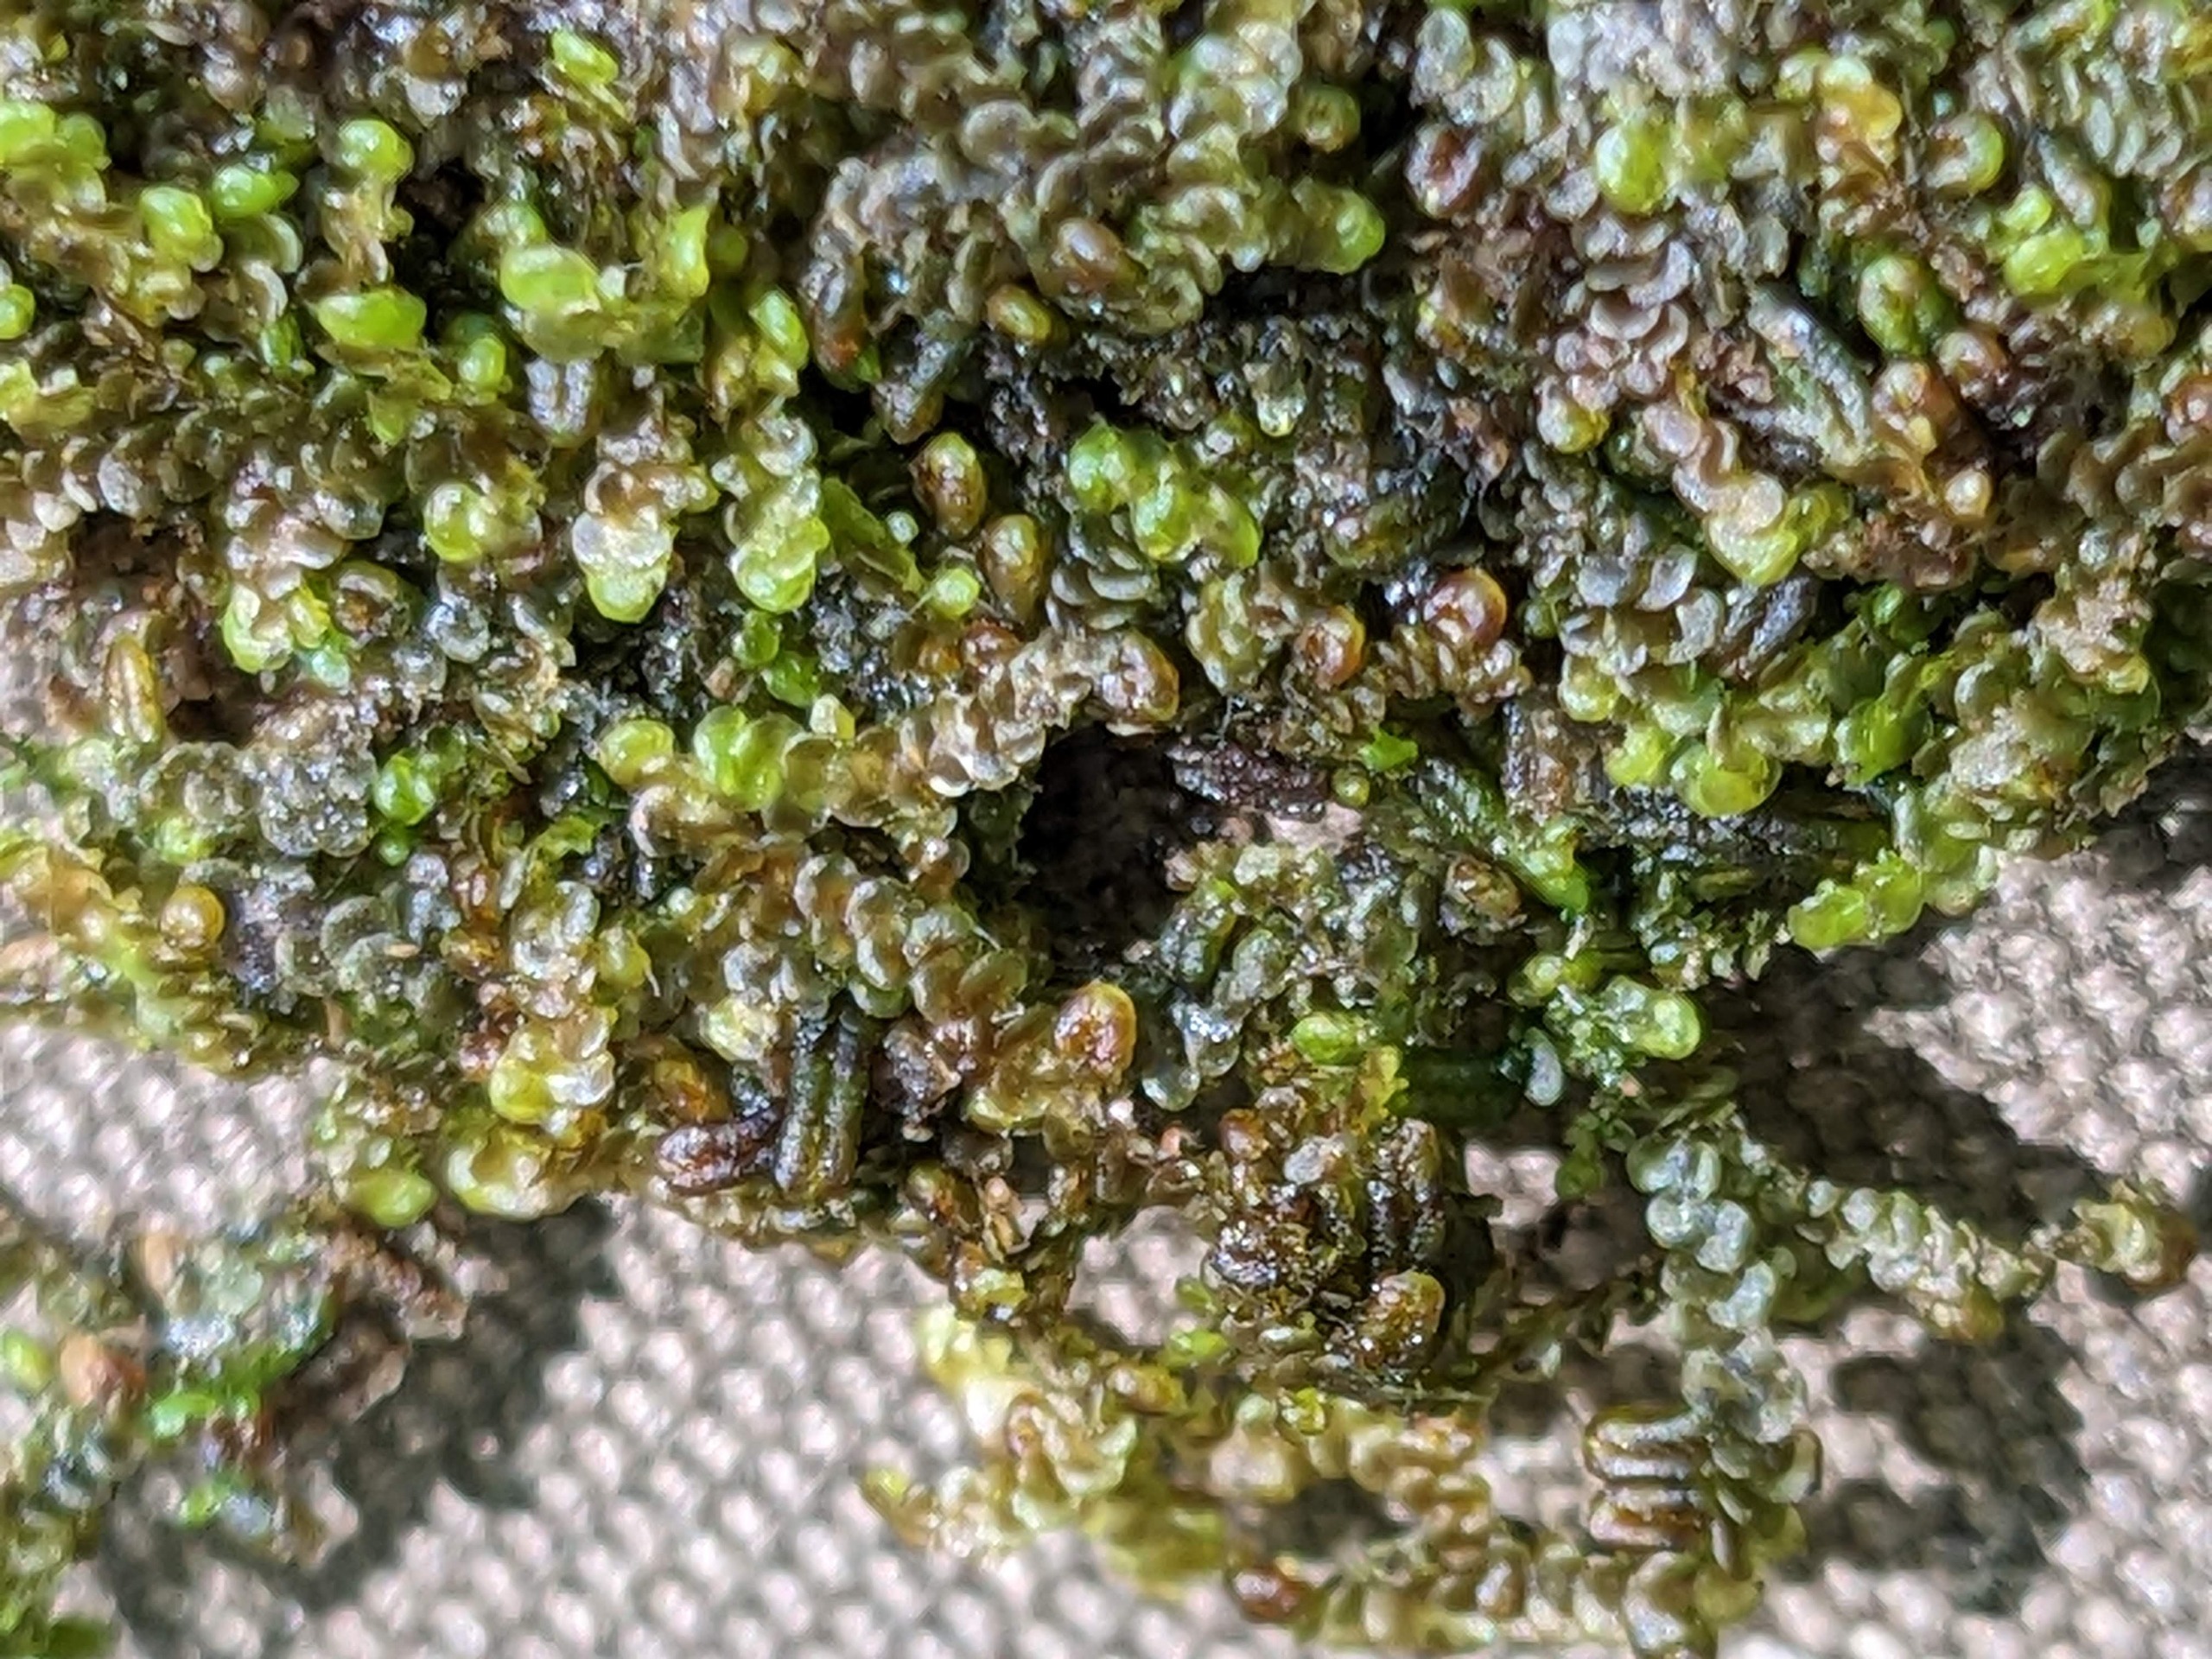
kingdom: Plantae
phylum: Marchantiophyta
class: Jungermanniopsida
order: Porellales
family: Frullaniaceae
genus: Frullania
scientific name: Frullania dilatata
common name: Mat bronzemos
